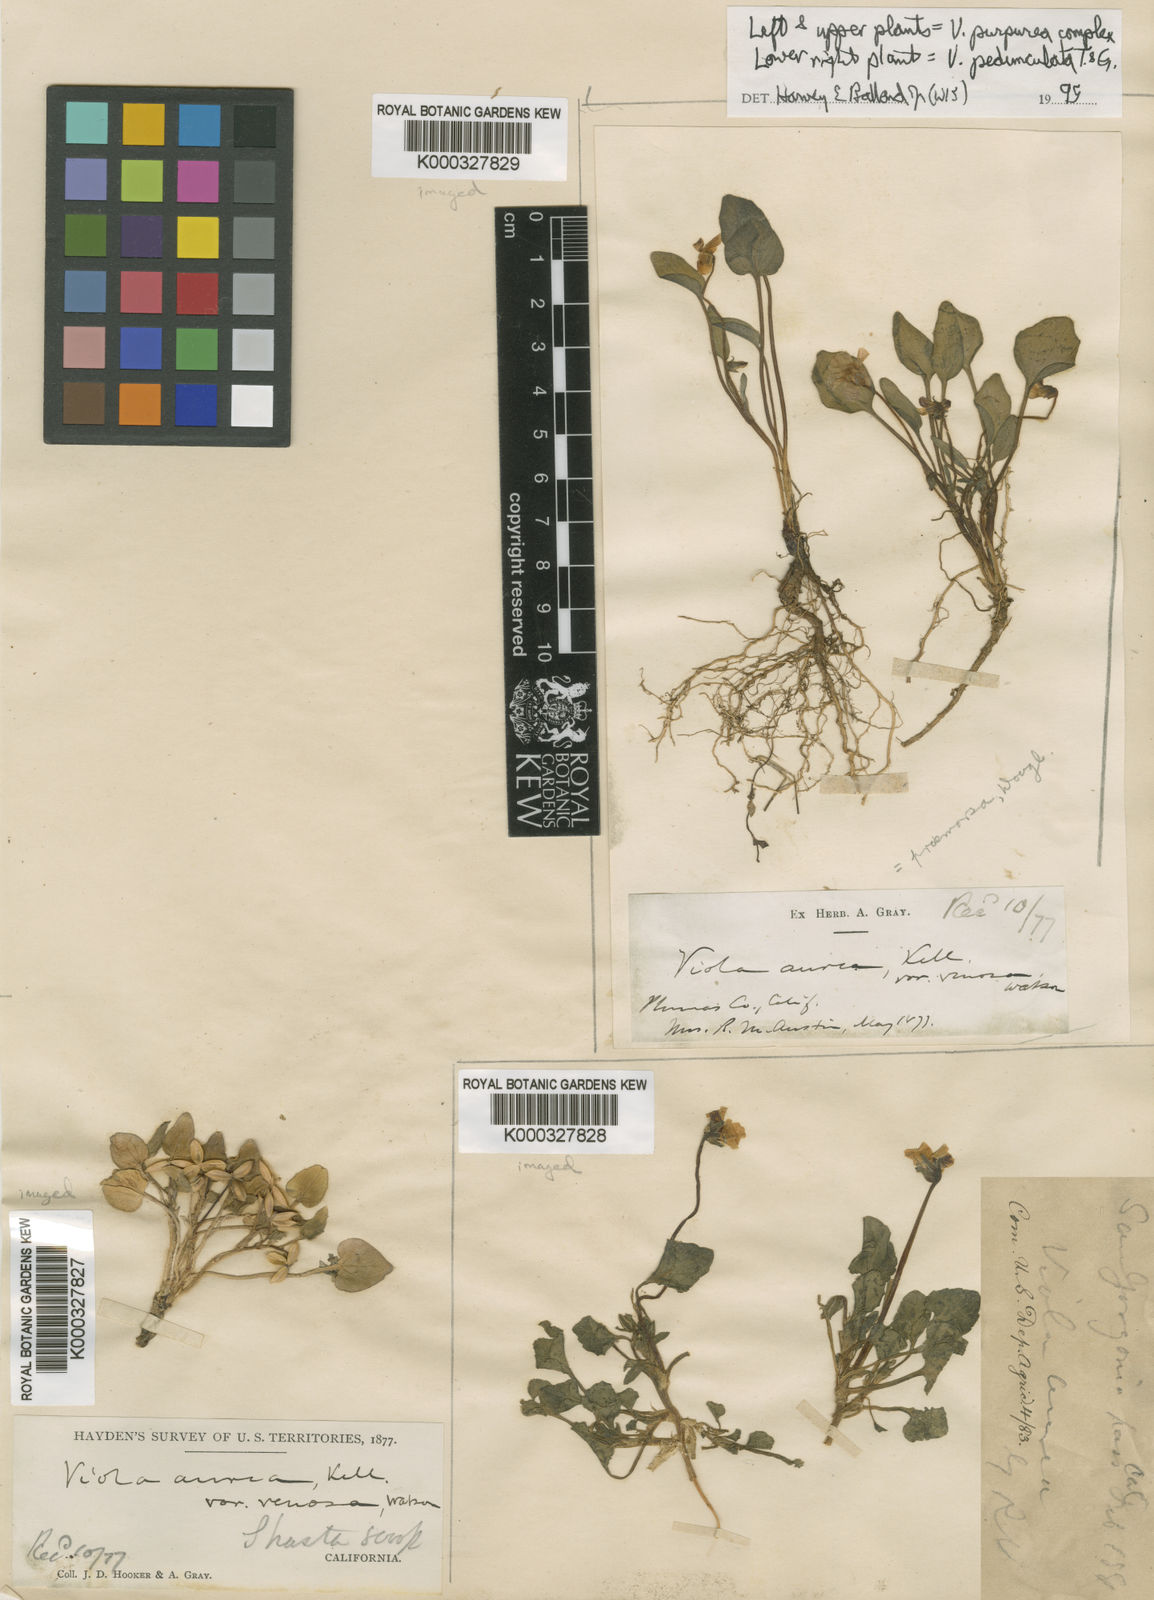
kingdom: Plantae
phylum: Tracheophyta
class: Magnoliopsida
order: Malpighiales
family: Violaceae
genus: Viola
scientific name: Viola
